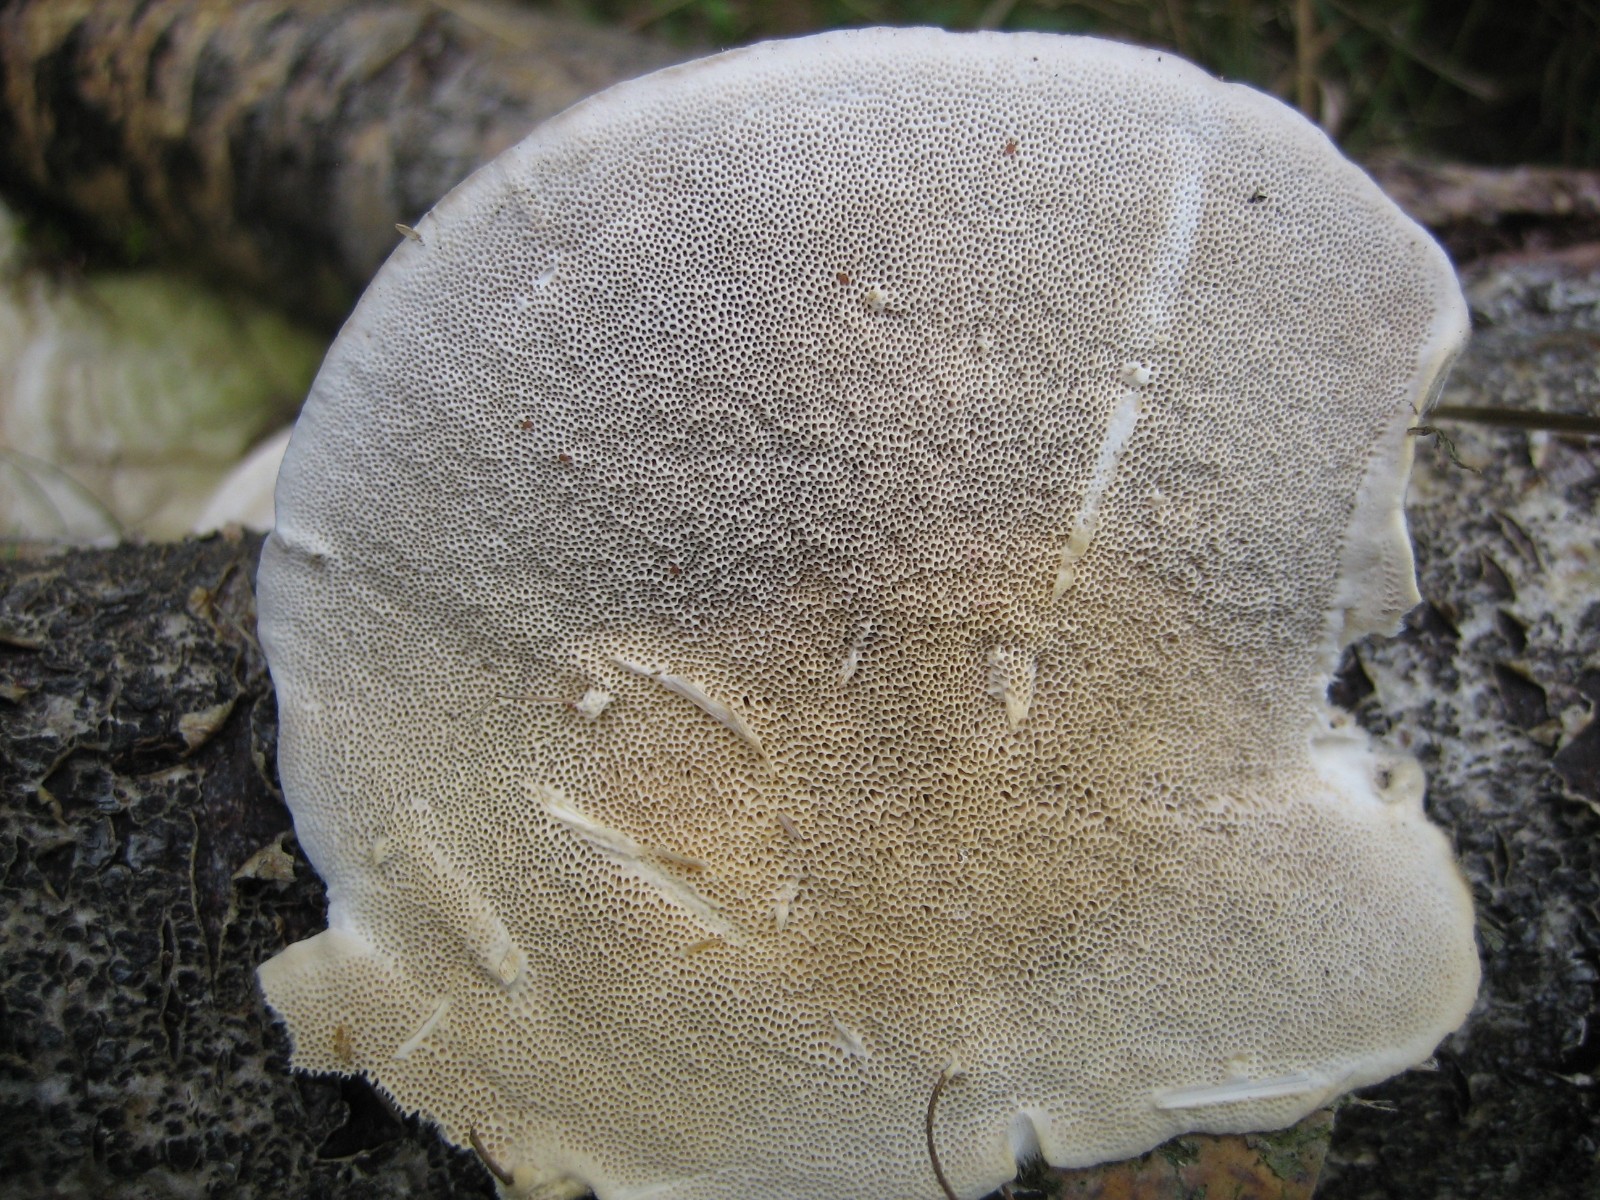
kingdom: Fungi
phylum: Basidiomycota
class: Agaricomycetes
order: Polyporales
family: Polyporaceae
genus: Trametes
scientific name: Trametes hirsuta
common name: håret læderporesvamp
